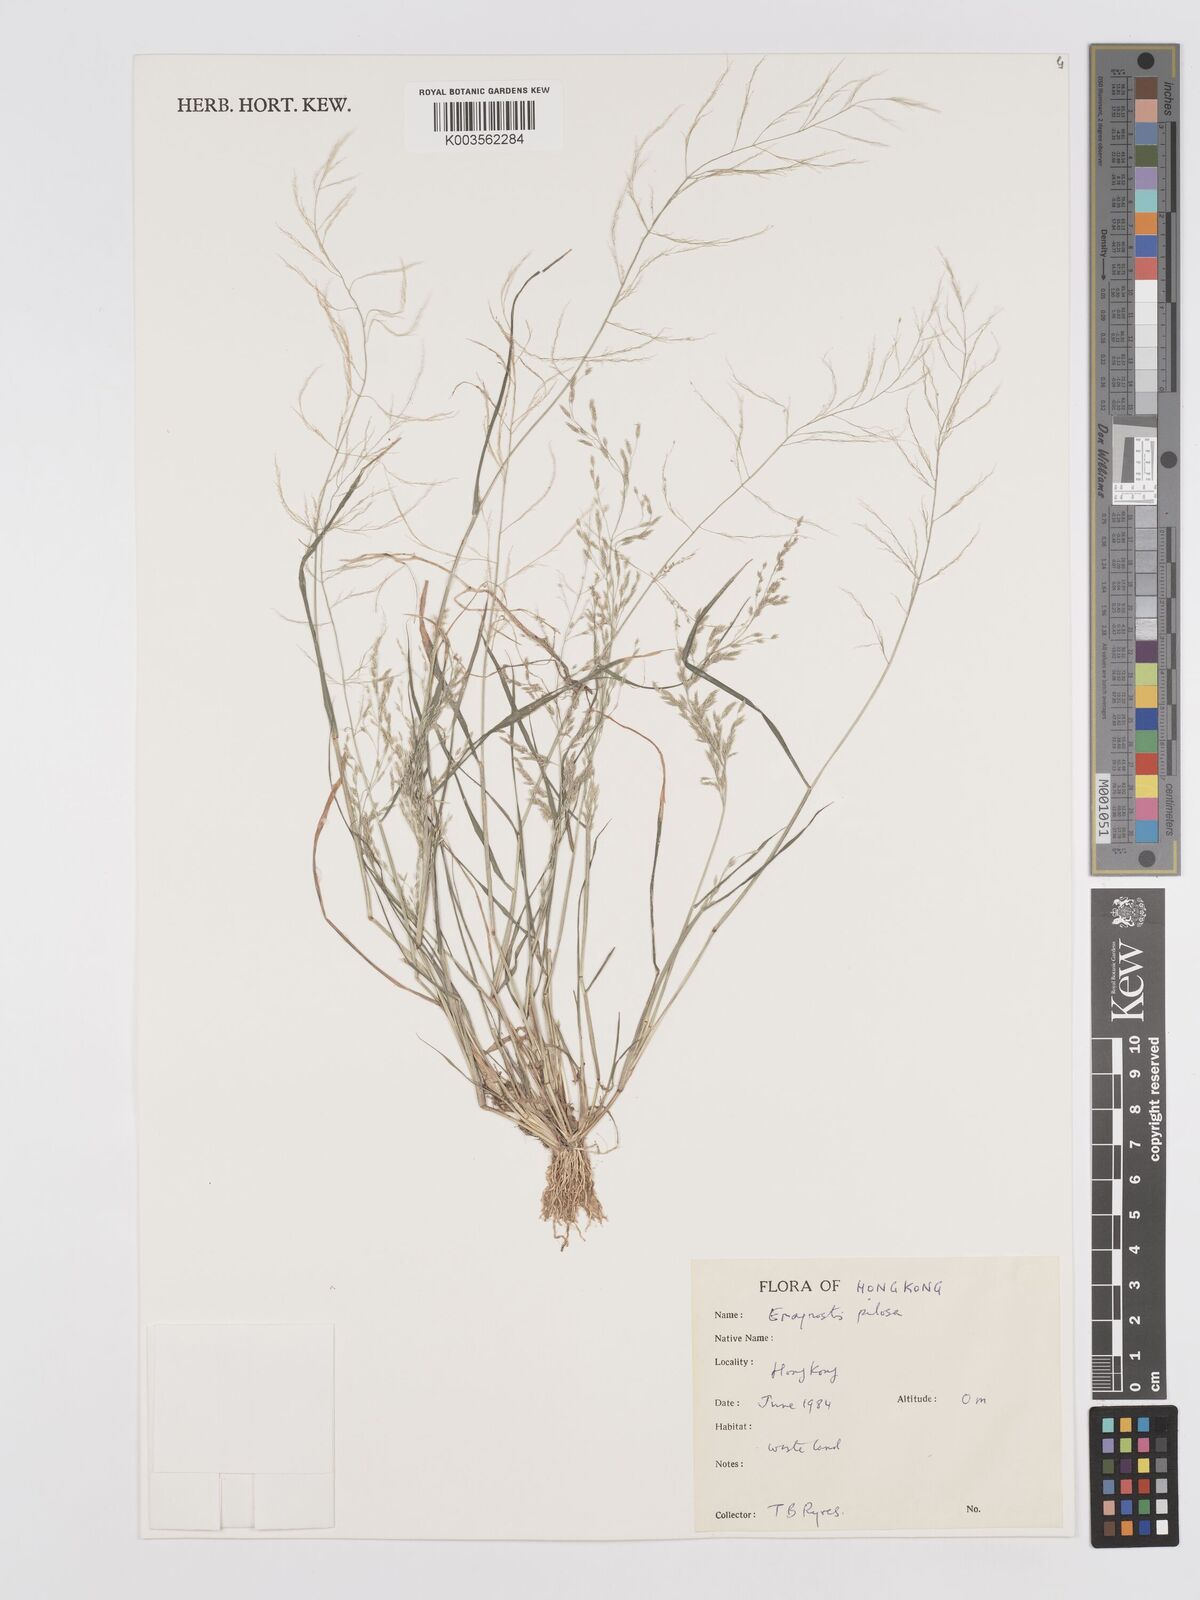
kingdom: Plantae
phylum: Tracheophyta
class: Liliopsida
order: Poales
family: Poaceae
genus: Eragrostis
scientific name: Eragrostis pilosa
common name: Indian lovegrass
